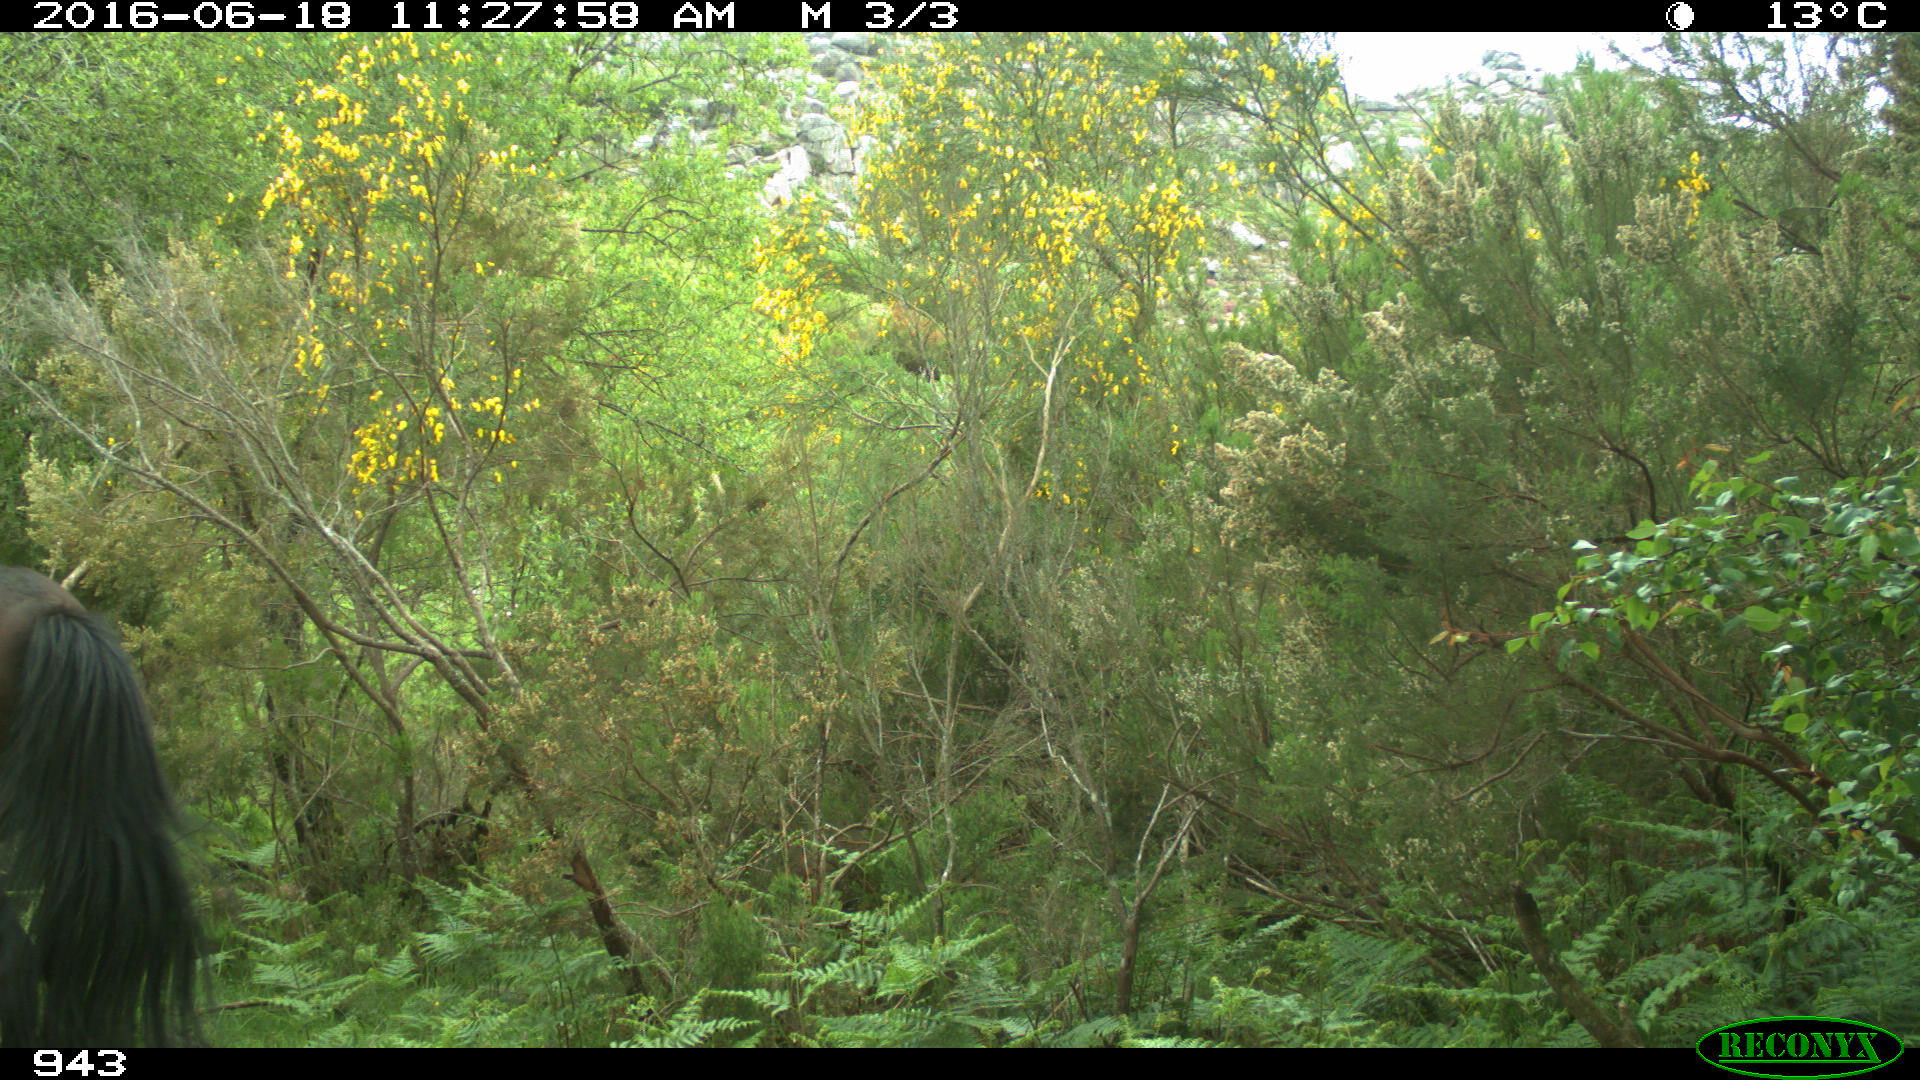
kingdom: Animalia
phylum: Chordata
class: Mammalia
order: Perissodactyla
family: Equidae
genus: Equus
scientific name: Equus caballus
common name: Horse
